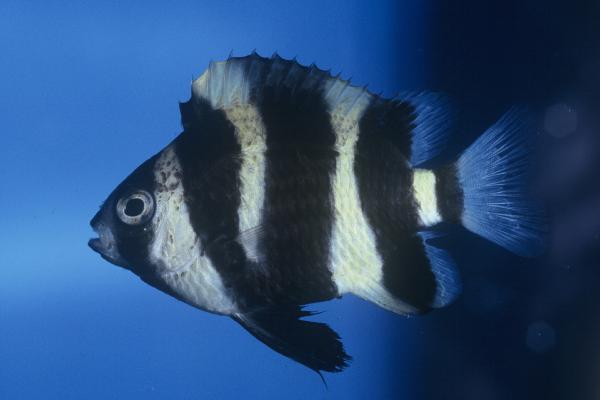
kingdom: Animalia
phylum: Chordata
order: Perciformes
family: Pomacentridae
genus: Chrysiptera
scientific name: Chrysiptera annulata
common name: Footballer demoiselle
